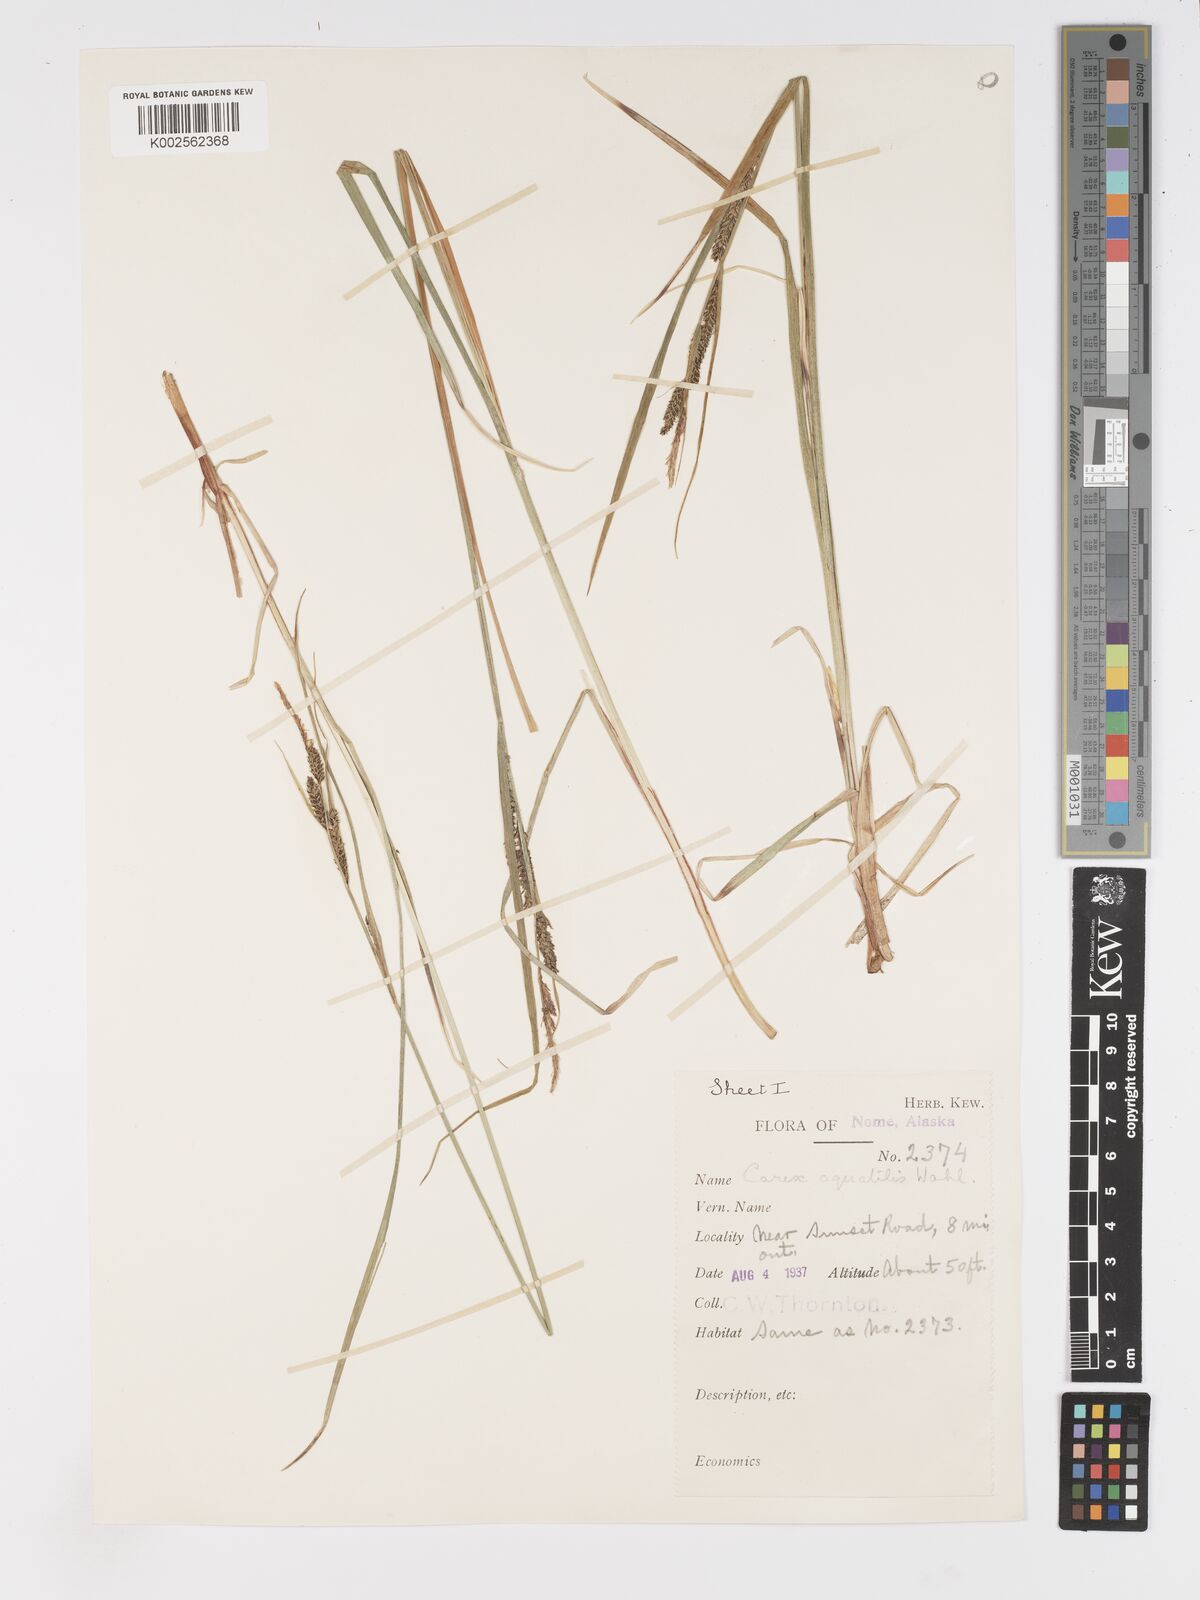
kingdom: Plantae
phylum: Tracheophyta
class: Liliopsida
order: Poales
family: Cyperaceae
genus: Carex
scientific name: Carex aquatilis
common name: Water sedge
